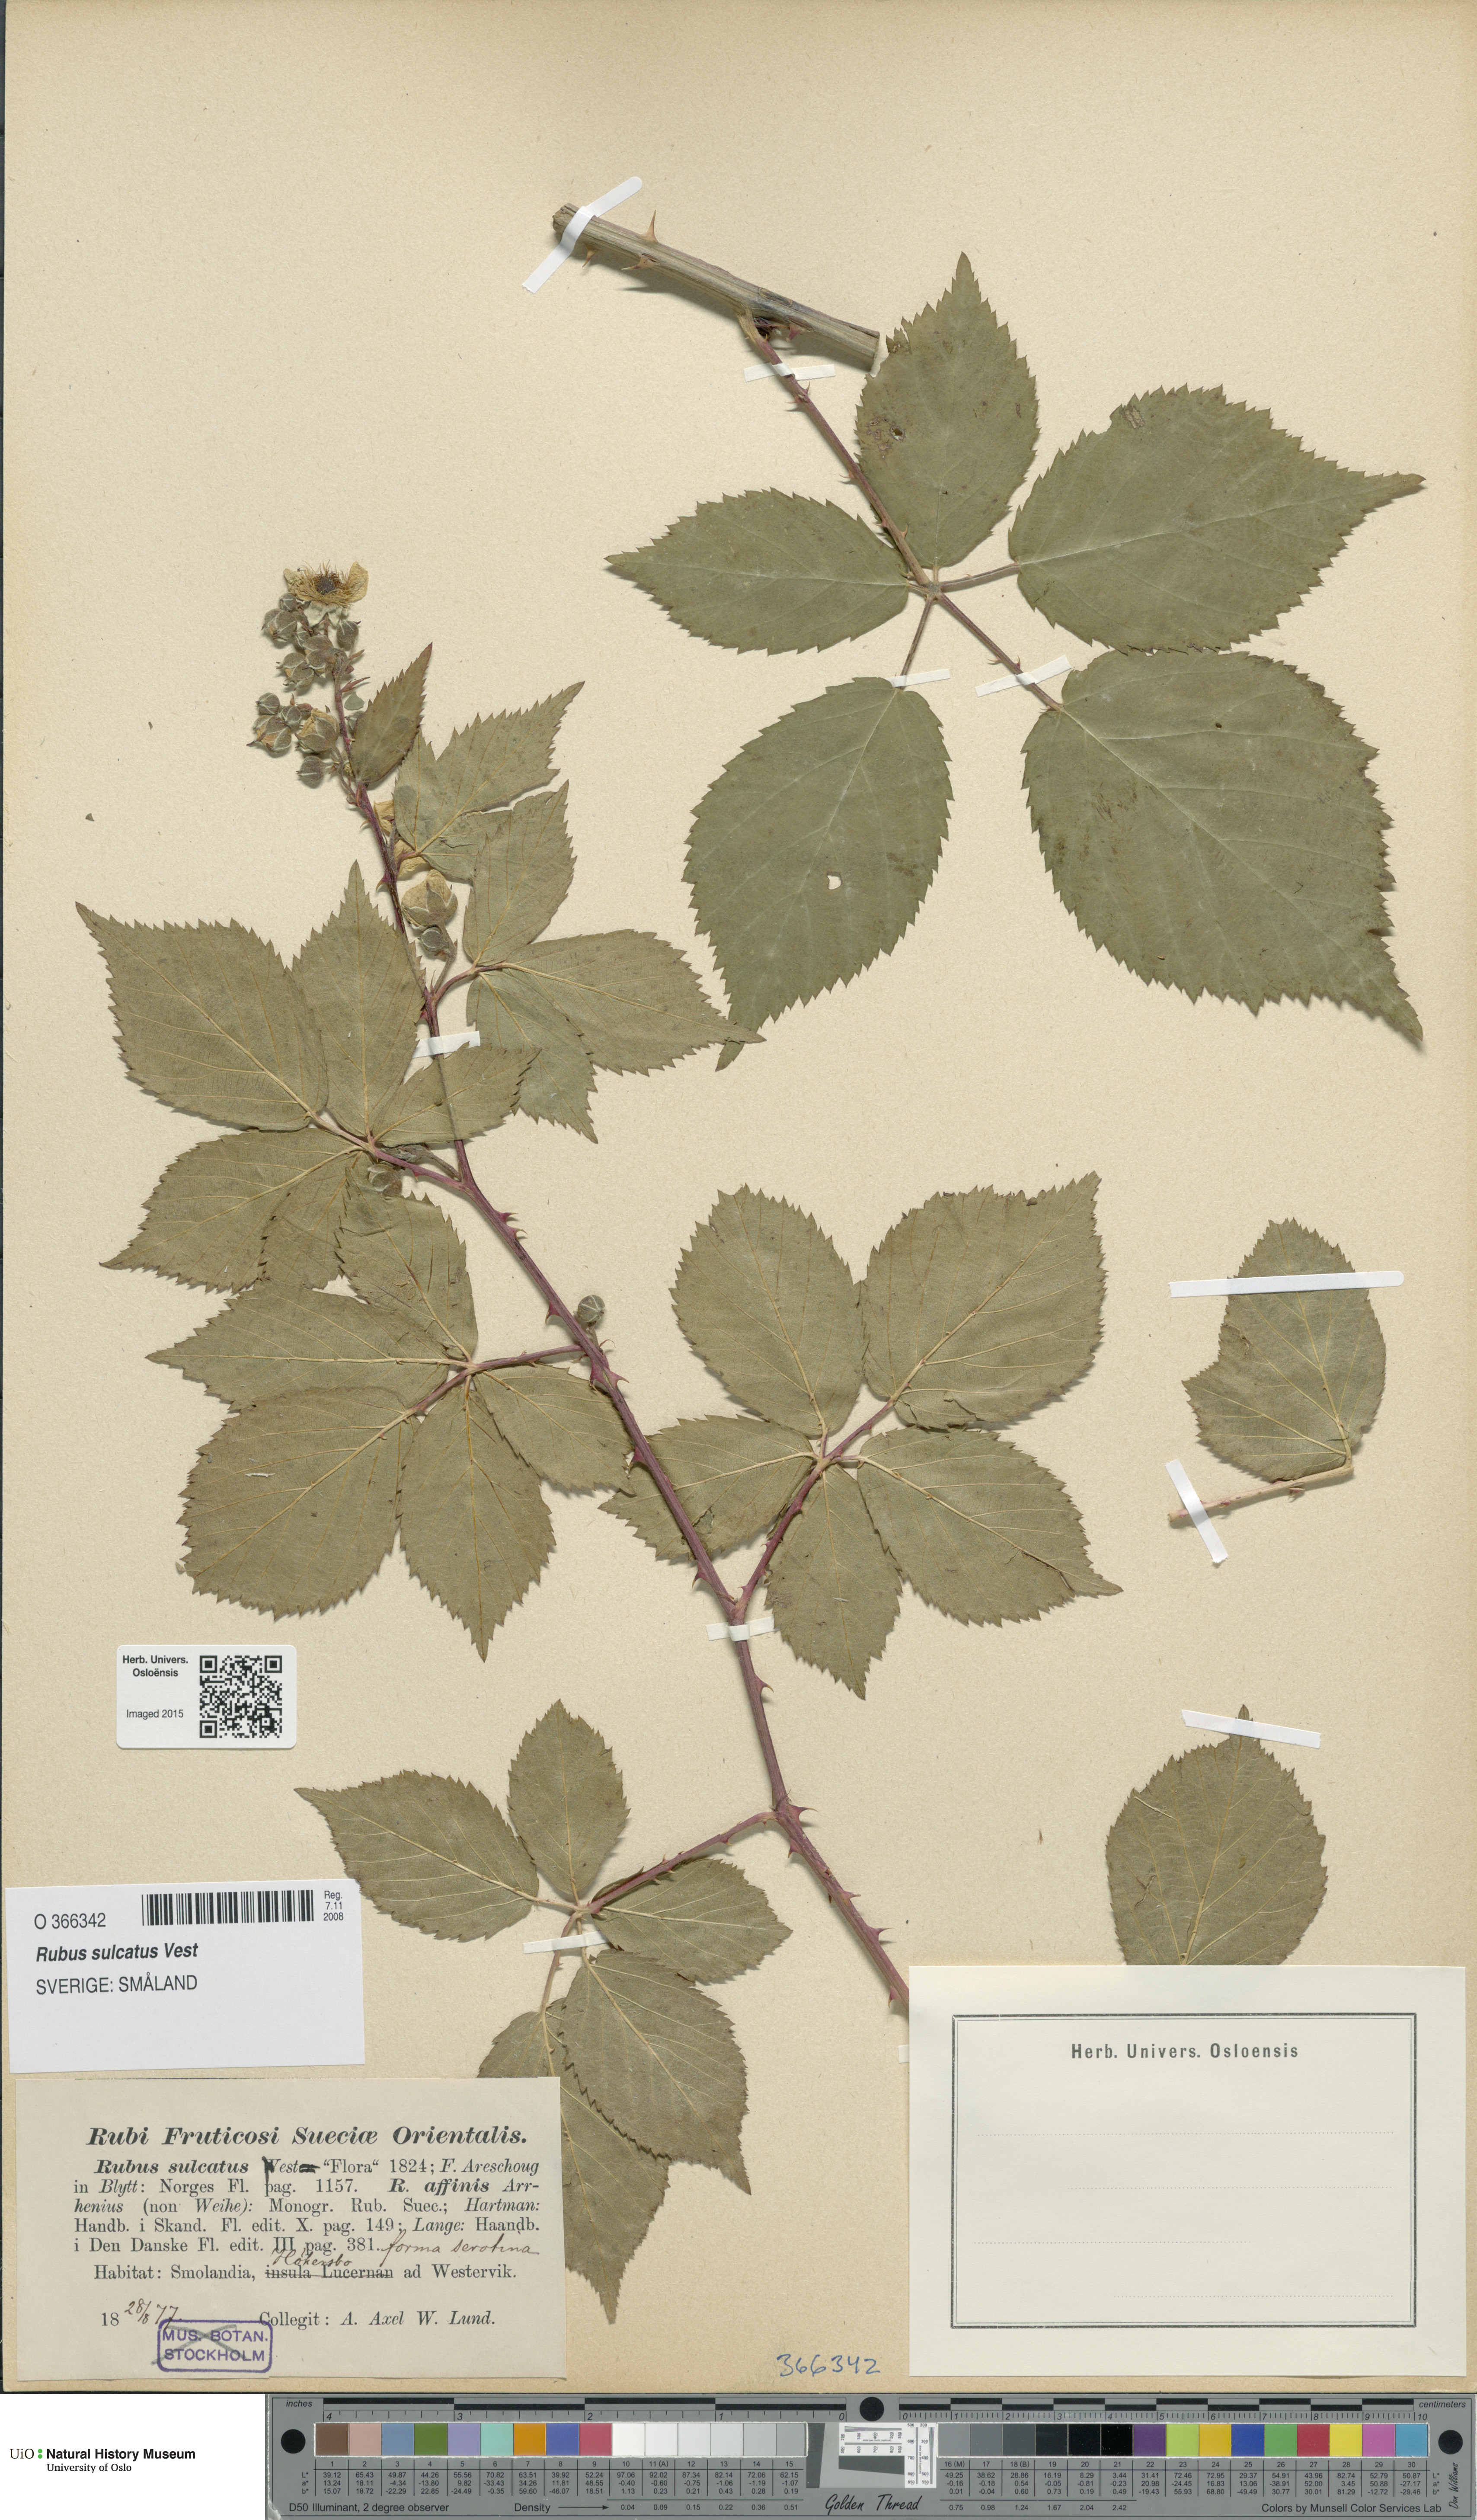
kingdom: Plantae
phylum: Tracheophyta
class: Magnoliopsida
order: Rosales
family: Rosaceae
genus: Rubus
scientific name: Rubus sulcatus
